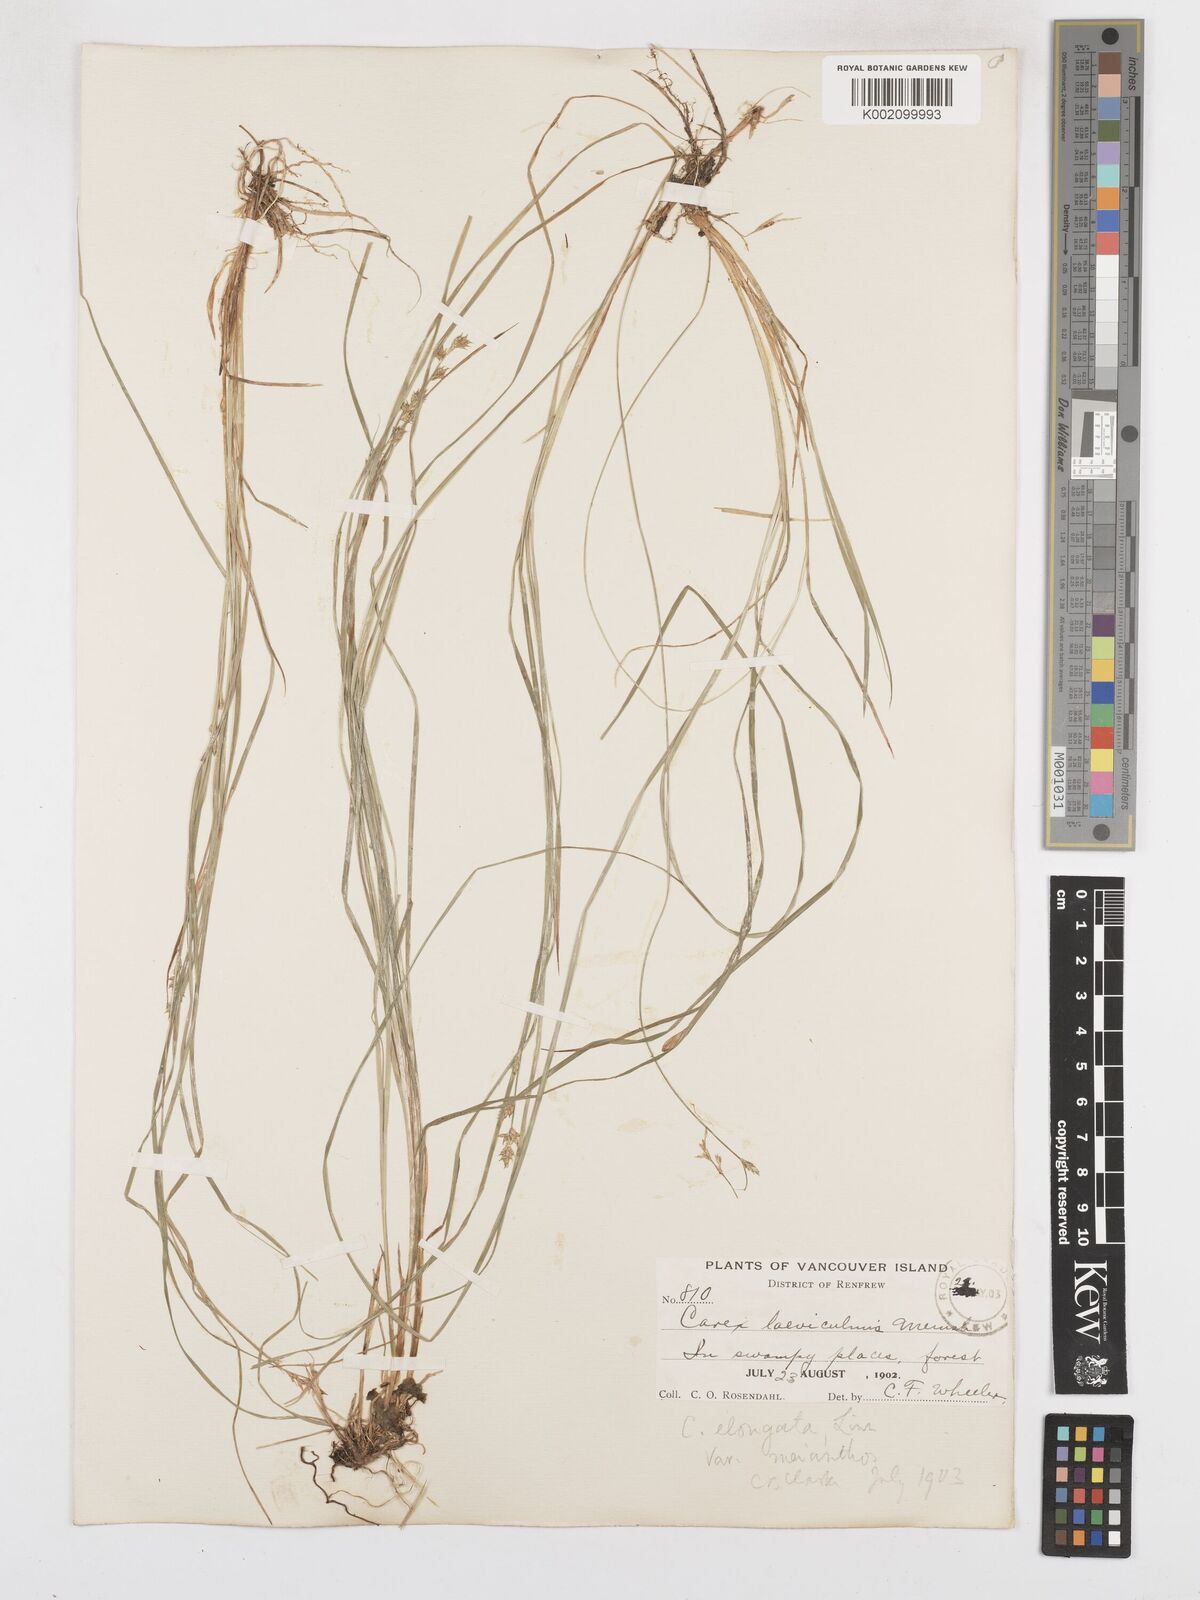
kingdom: Plantae
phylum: Tracheophyta
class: Liliopsida
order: Poales
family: Cyperaceae
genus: Carex
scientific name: Carex laeviculmis
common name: Smooth sedge
